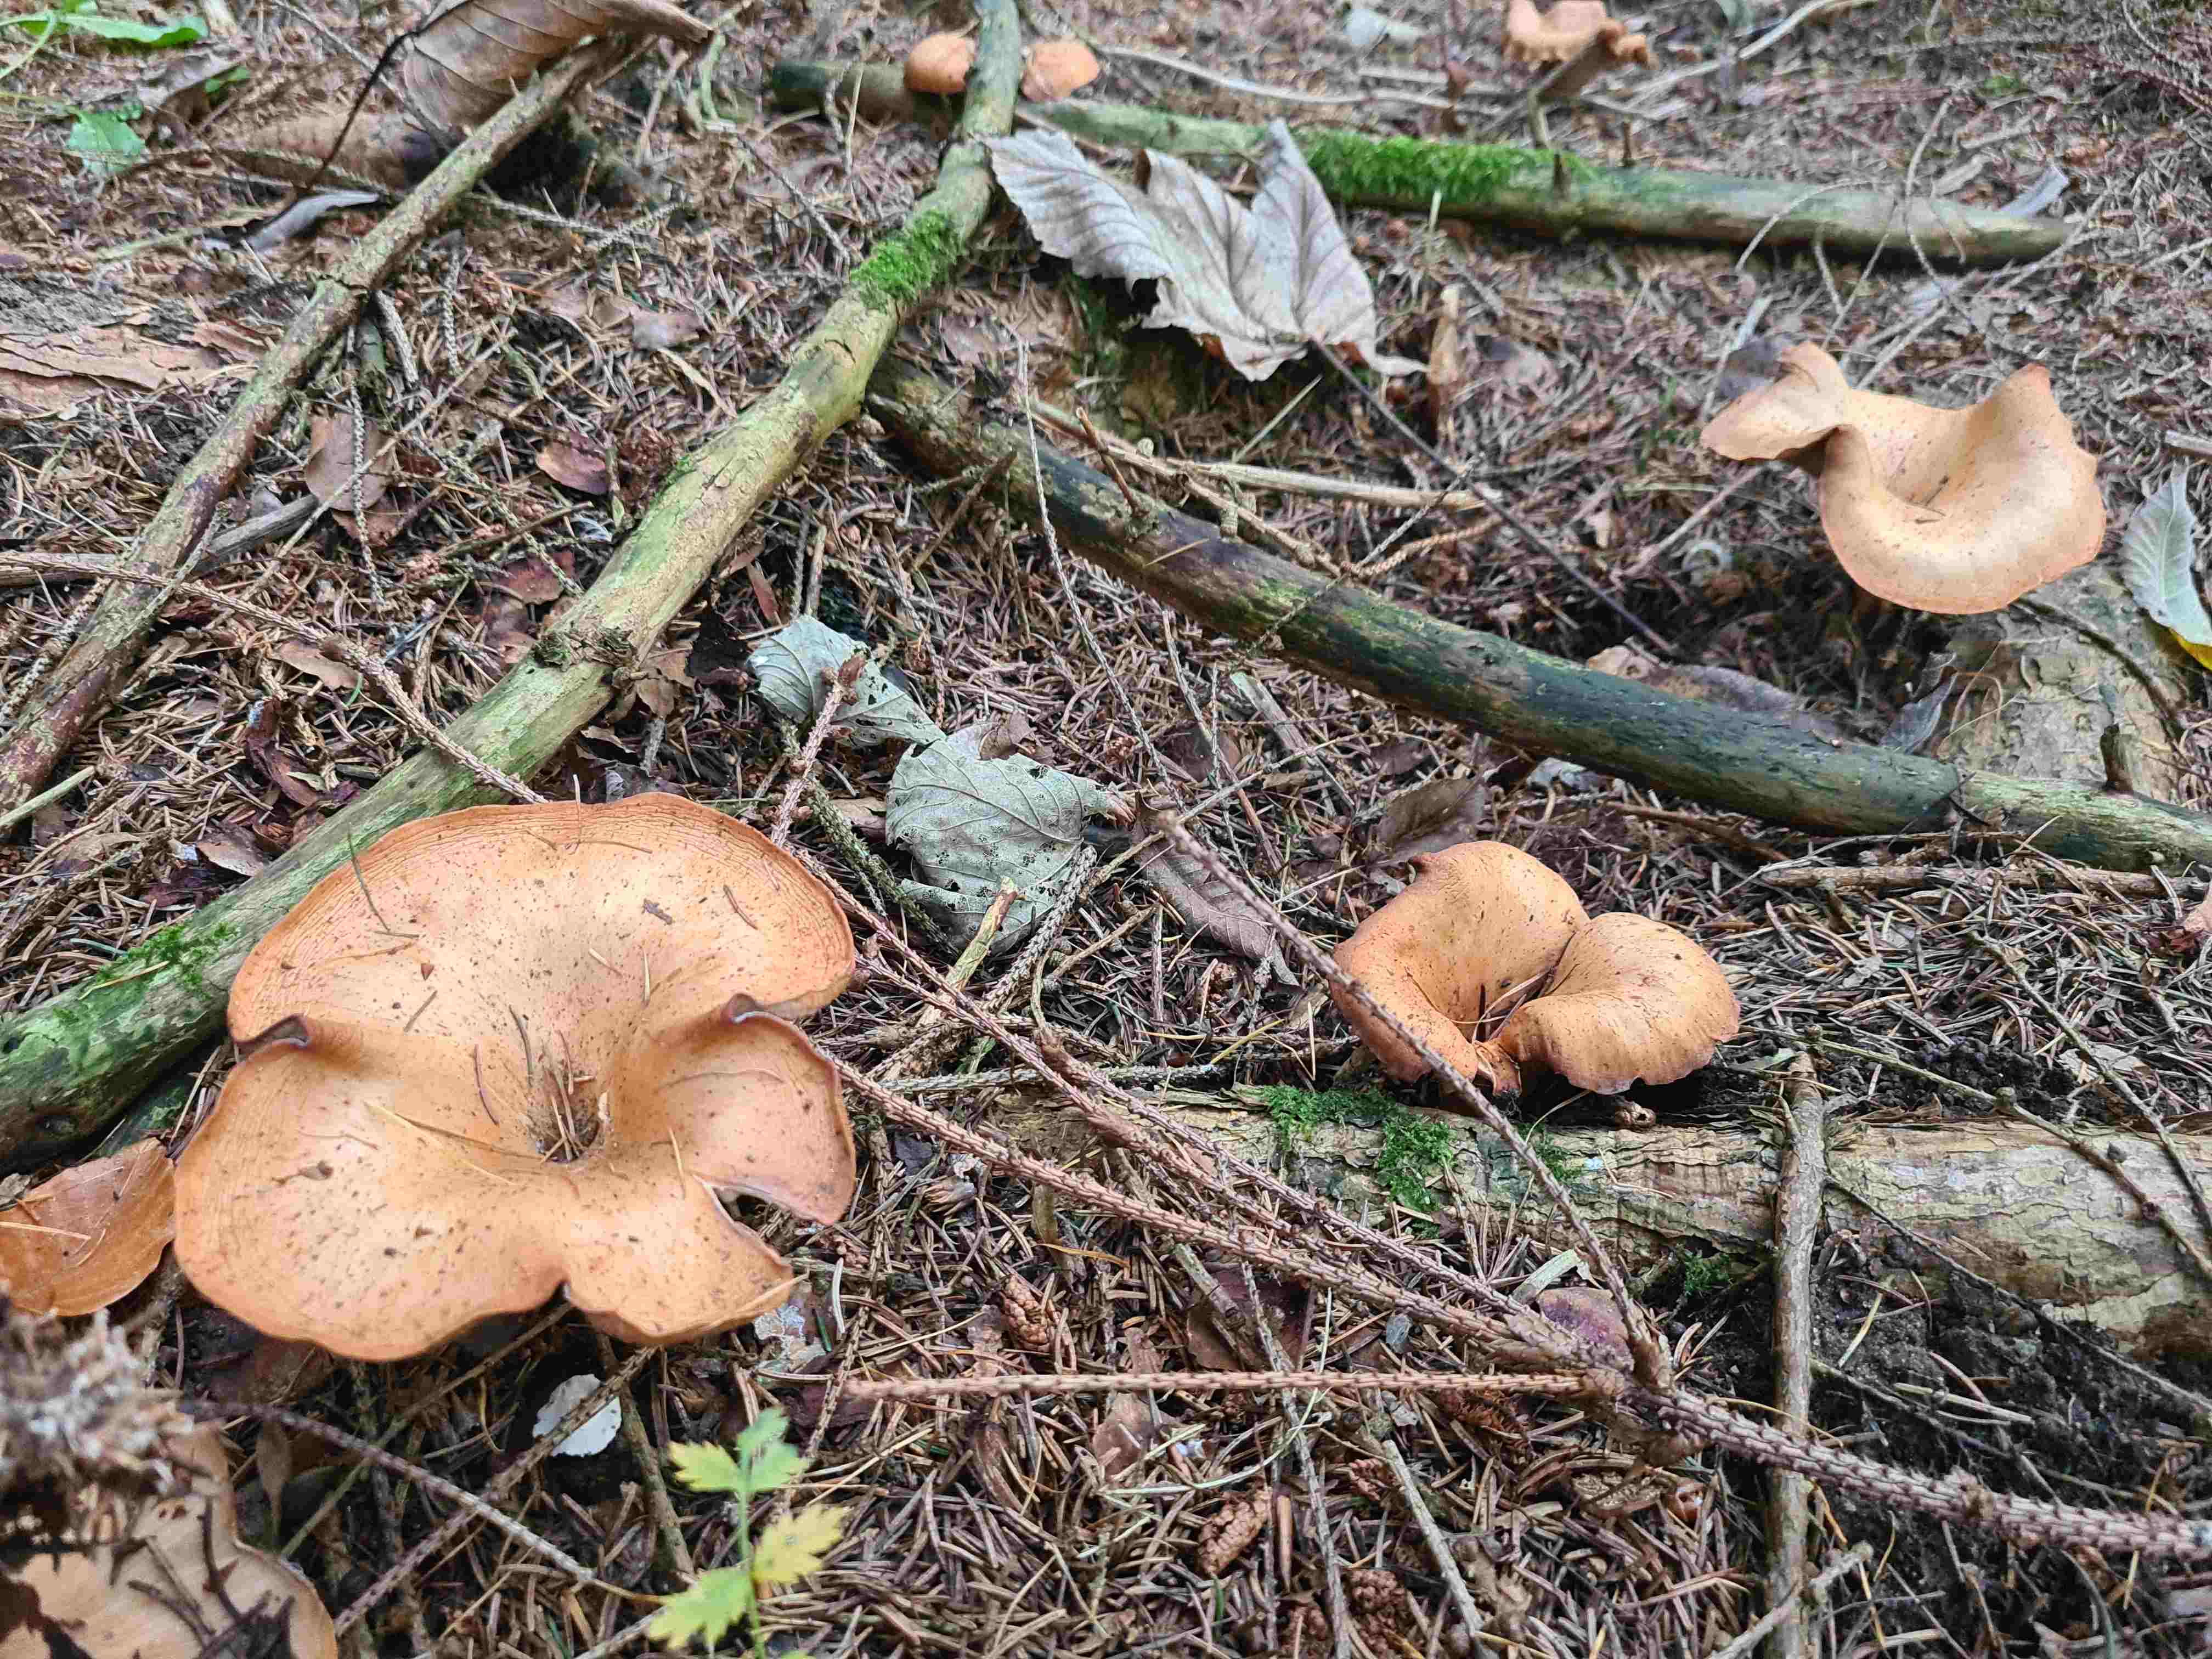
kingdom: Fungi
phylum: Basidiomycota
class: Agaricomycetes
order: Agaricales
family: Tricholomataceae
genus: Paralepista
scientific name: Paralepista flaccida
